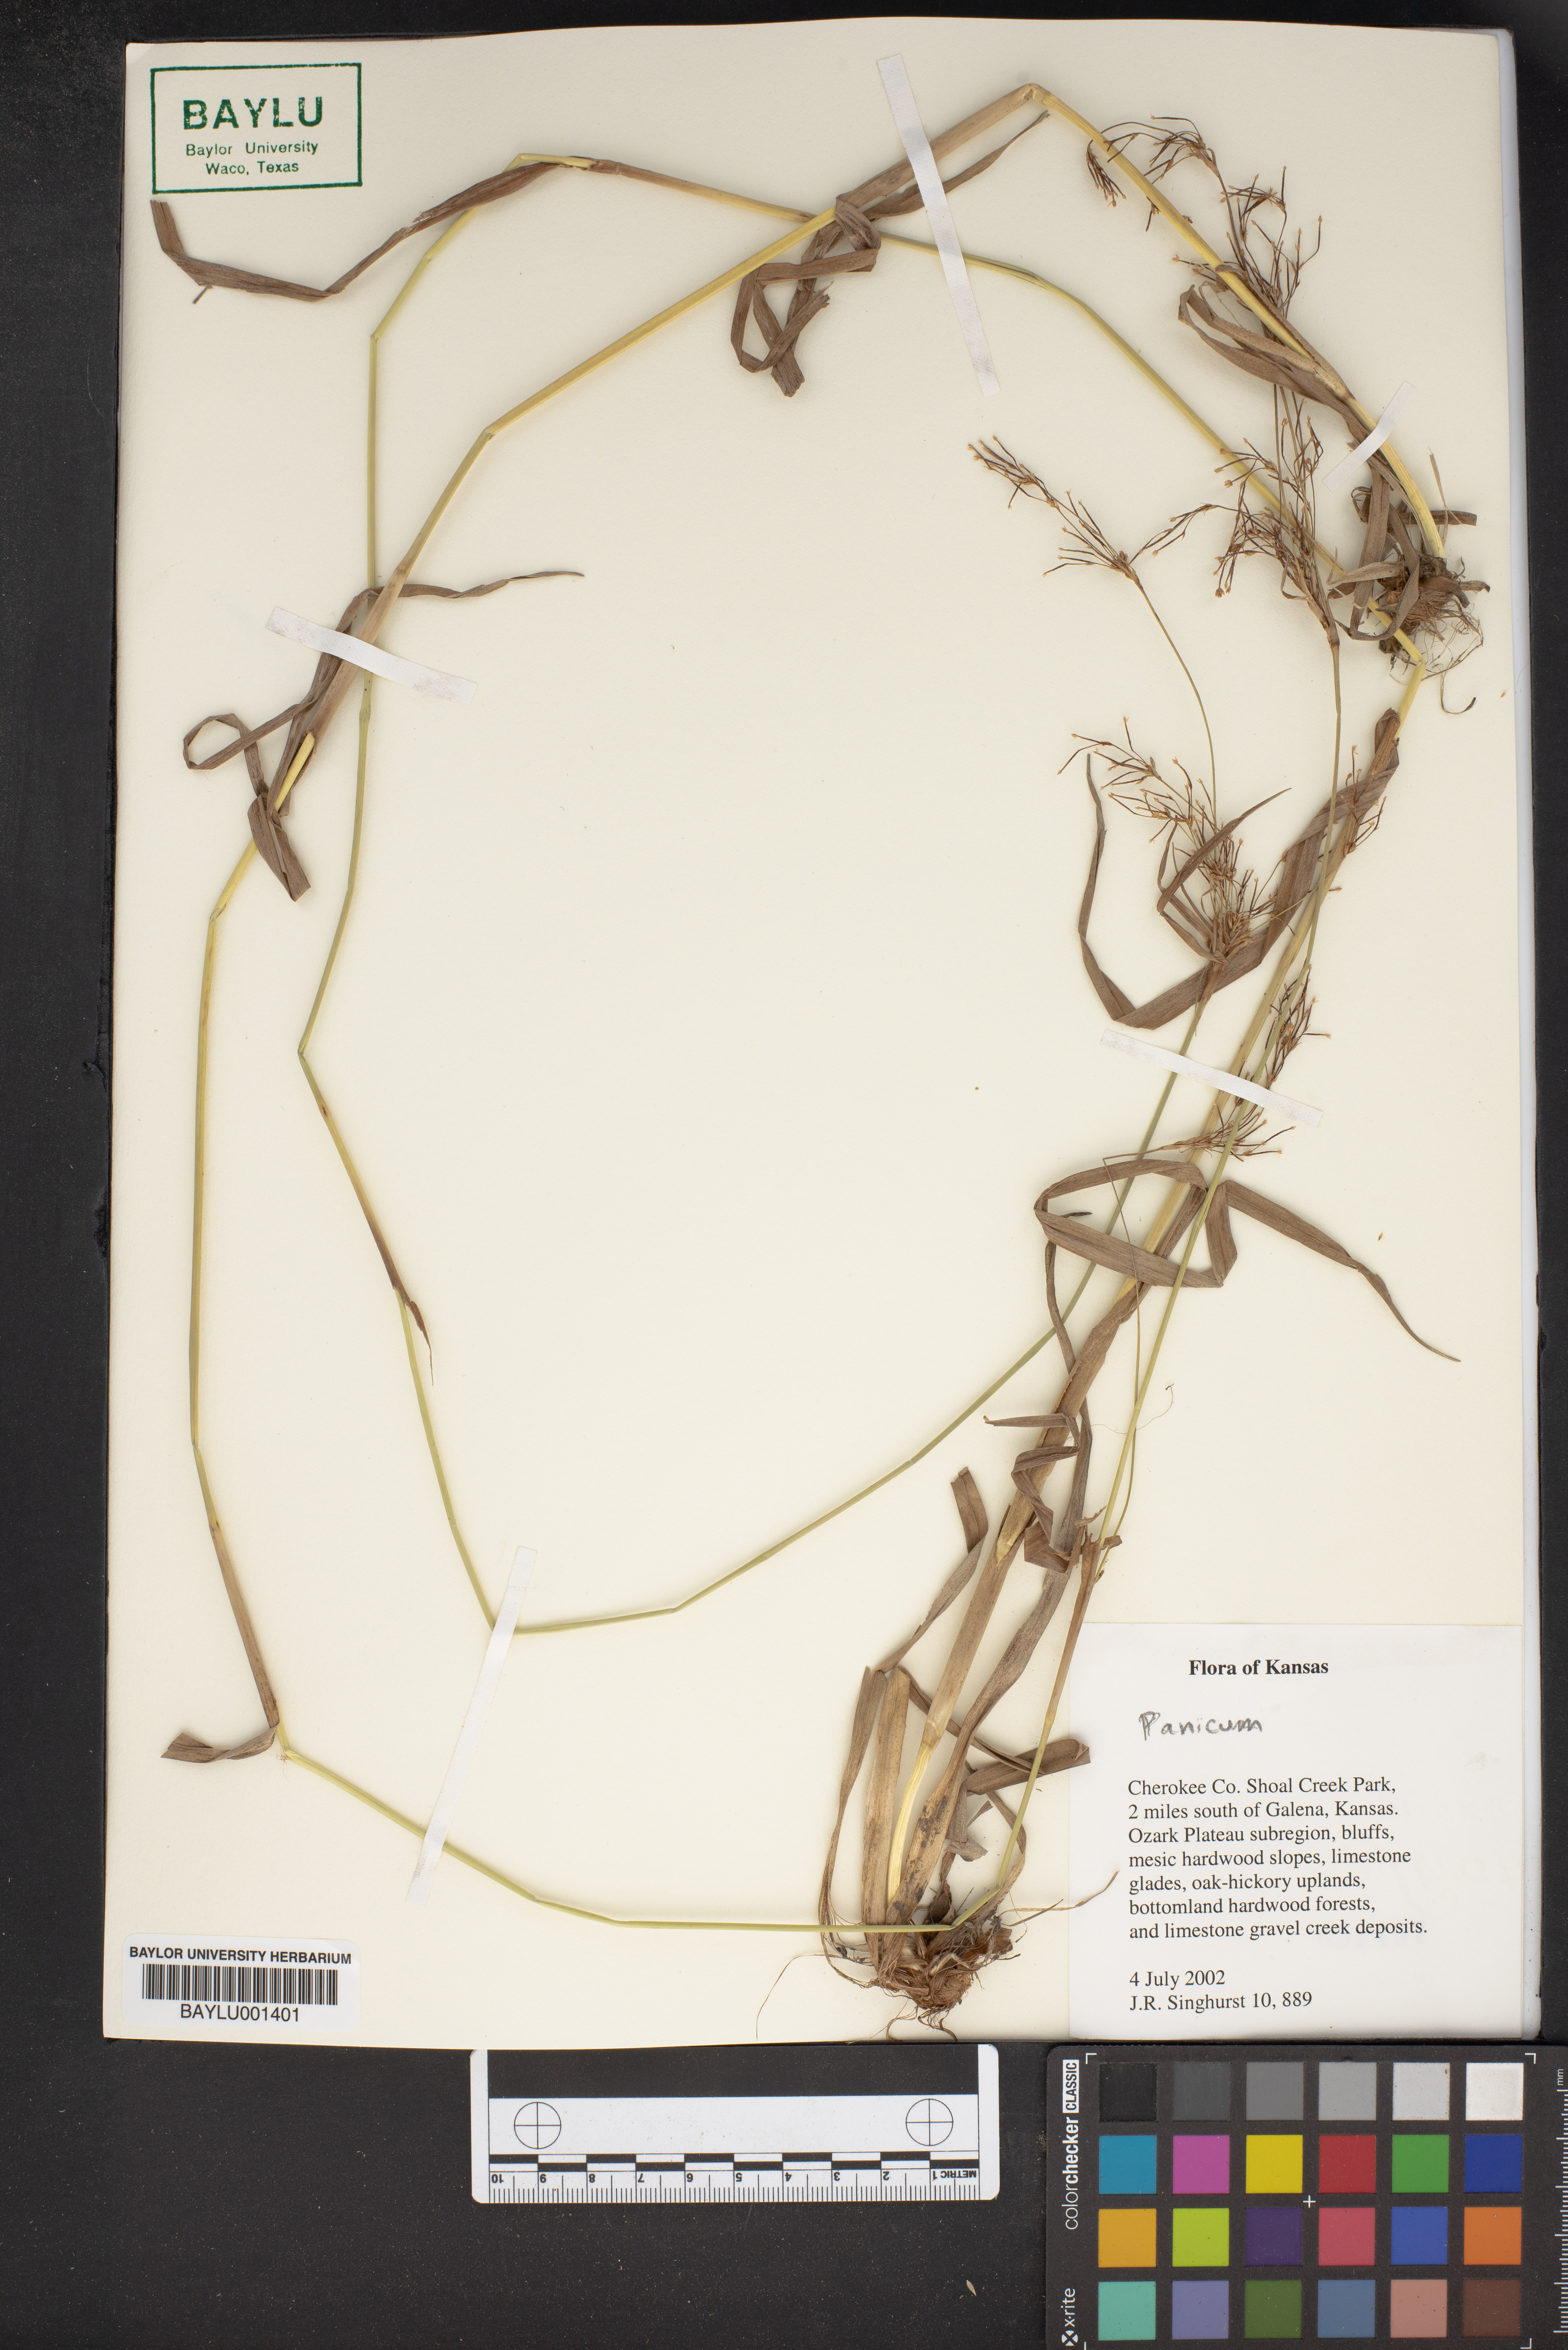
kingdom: Plantae
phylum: Tracheophyta
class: Liliopsida
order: Poales
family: Poaceae
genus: Panicum
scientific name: Panicum
